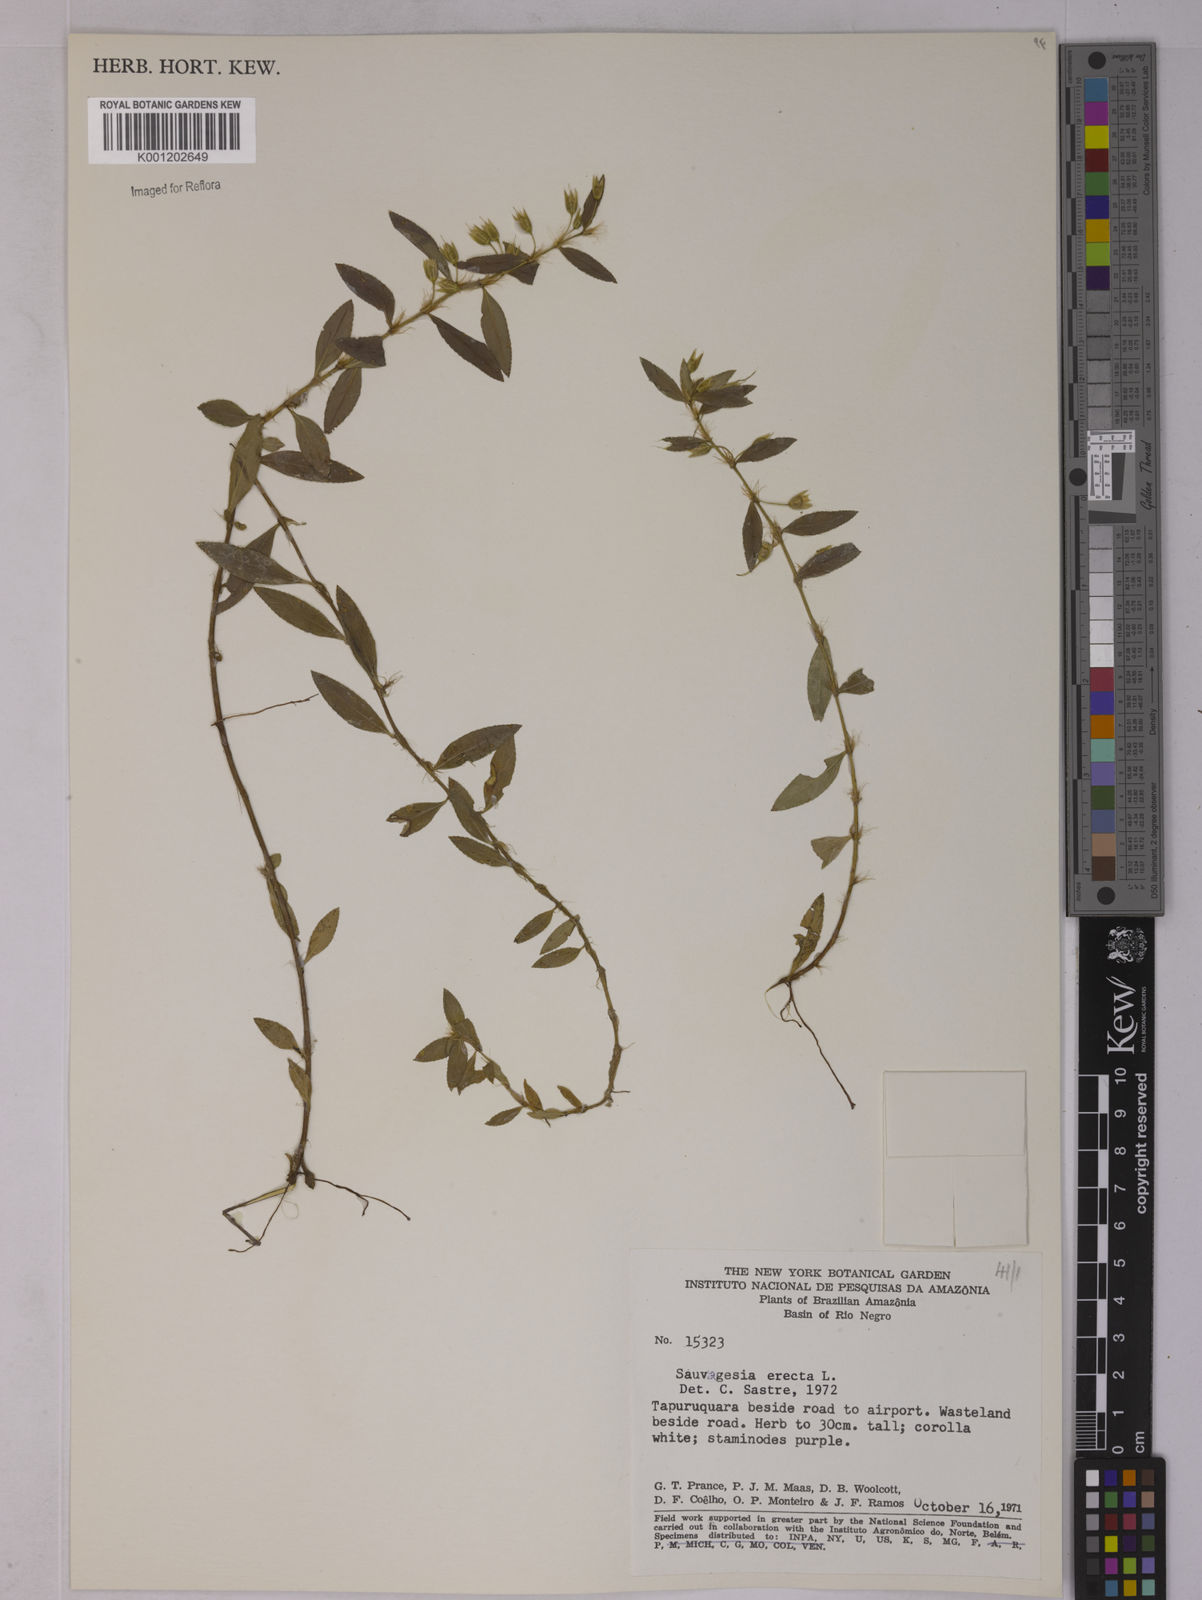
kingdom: Plantae
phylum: Tracheophyta
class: Magnoliopsida
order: Malpighiales
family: Ochnaceae
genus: Sauvagesia
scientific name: Sauvagesia erecta
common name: Creole tea
